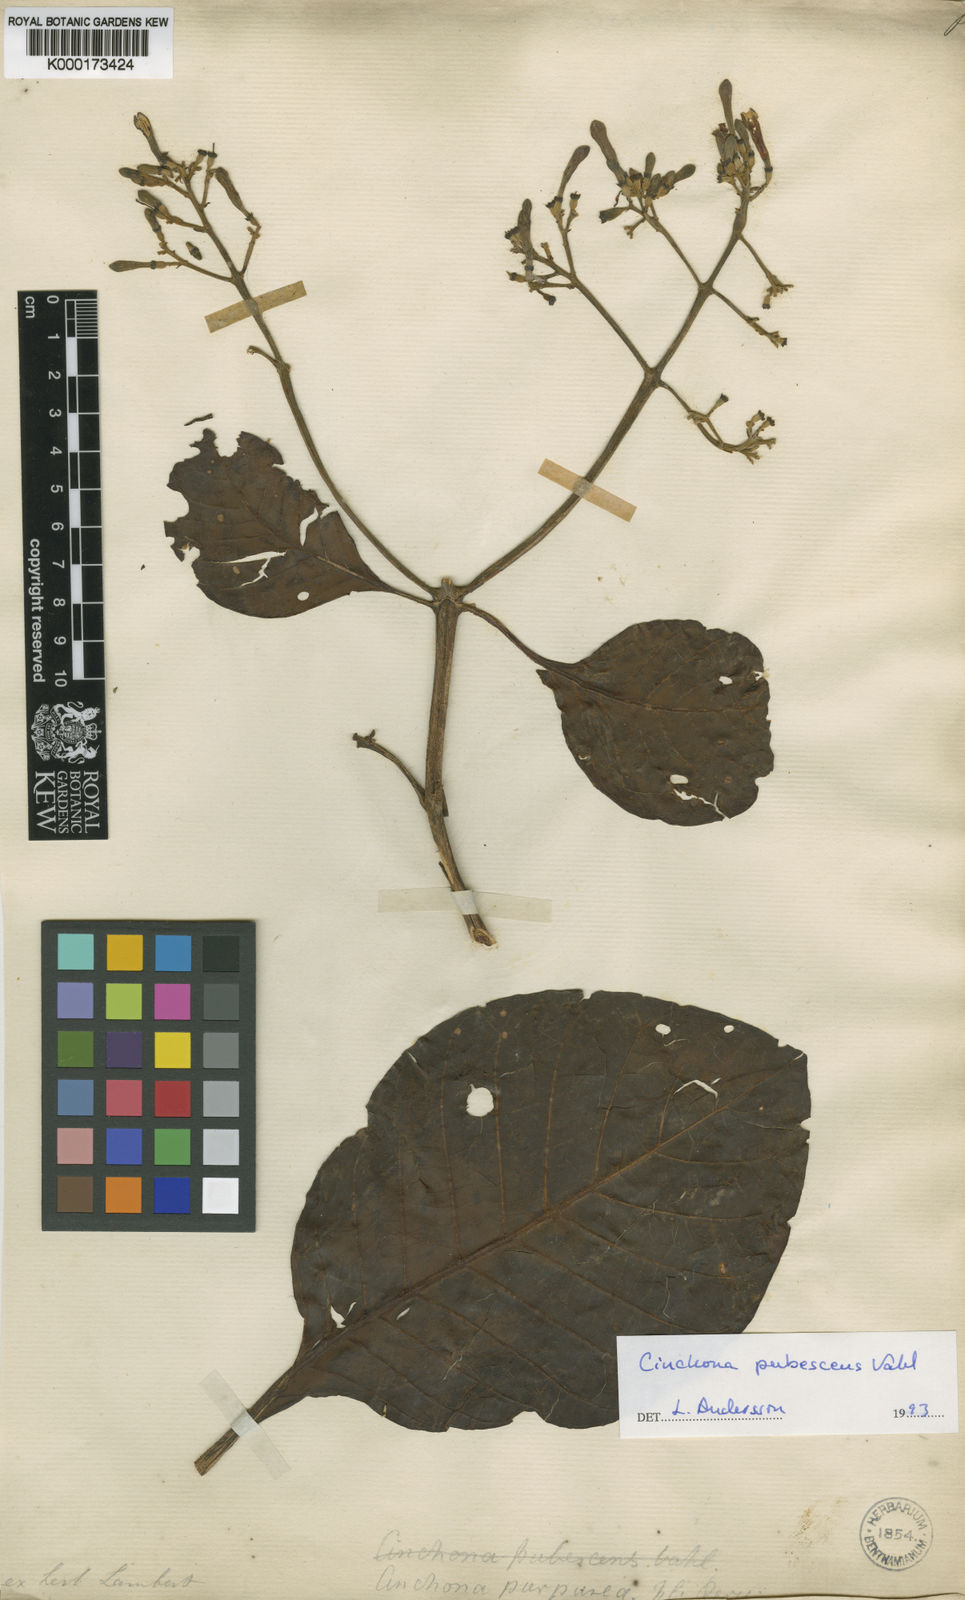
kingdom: Plantae
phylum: Tracheophyta
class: Magnoliopsida
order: Gentianales
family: Rubiaceae
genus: Cinchona
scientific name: Cinchona pubescens
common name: Quinine
